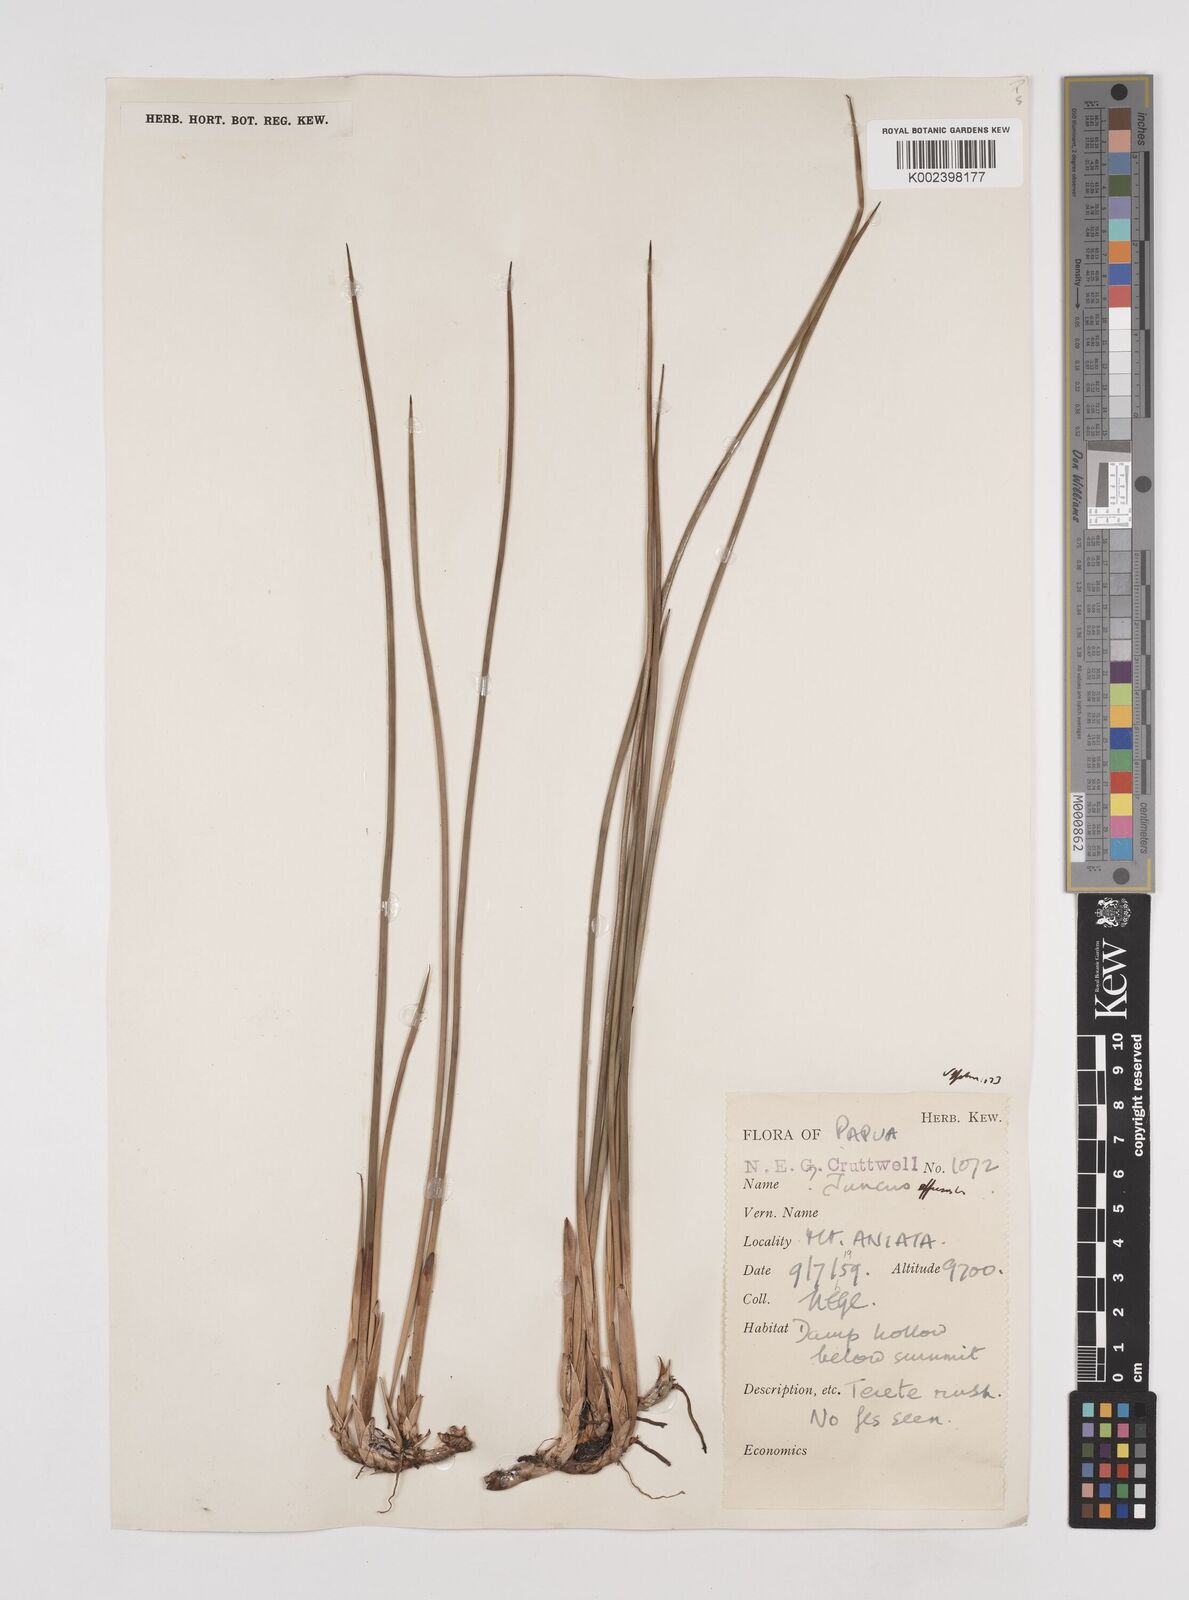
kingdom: Plantae
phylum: Tracheophyta
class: Liliopsida
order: Poales
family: Juncaceae
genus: Juncus
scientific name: Juncus decipiens
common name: Lamp rush
